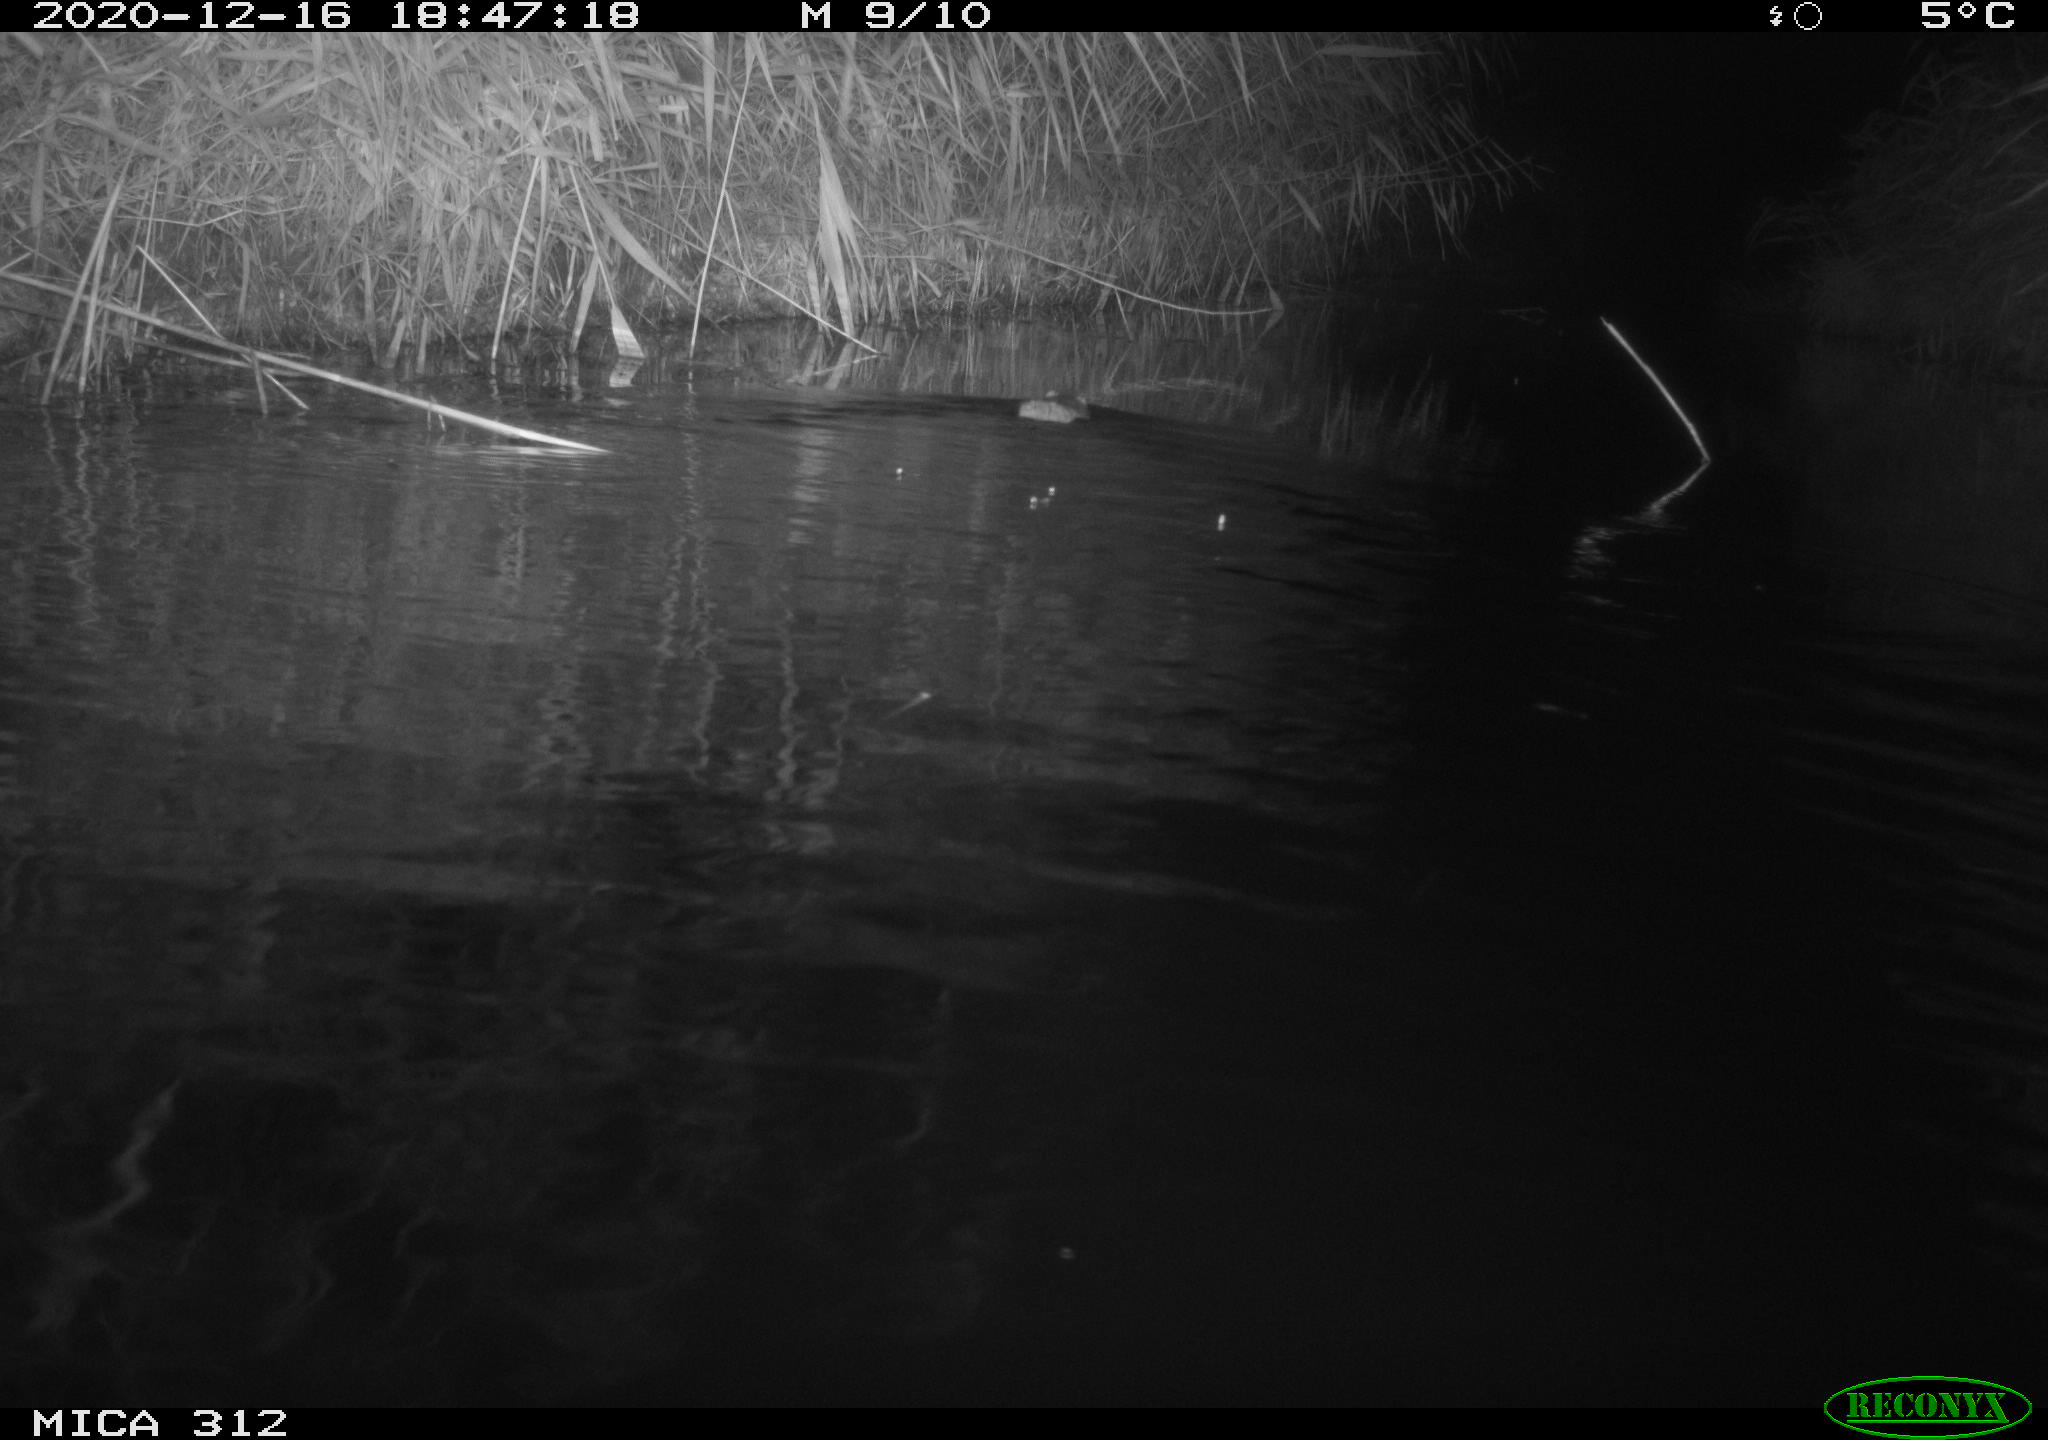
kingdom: Animalia
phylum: Chordata
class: Mammalia
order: Rodentia
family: Muridae
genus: Rattus
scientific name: Rattus norvegicus
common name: Brown rat
